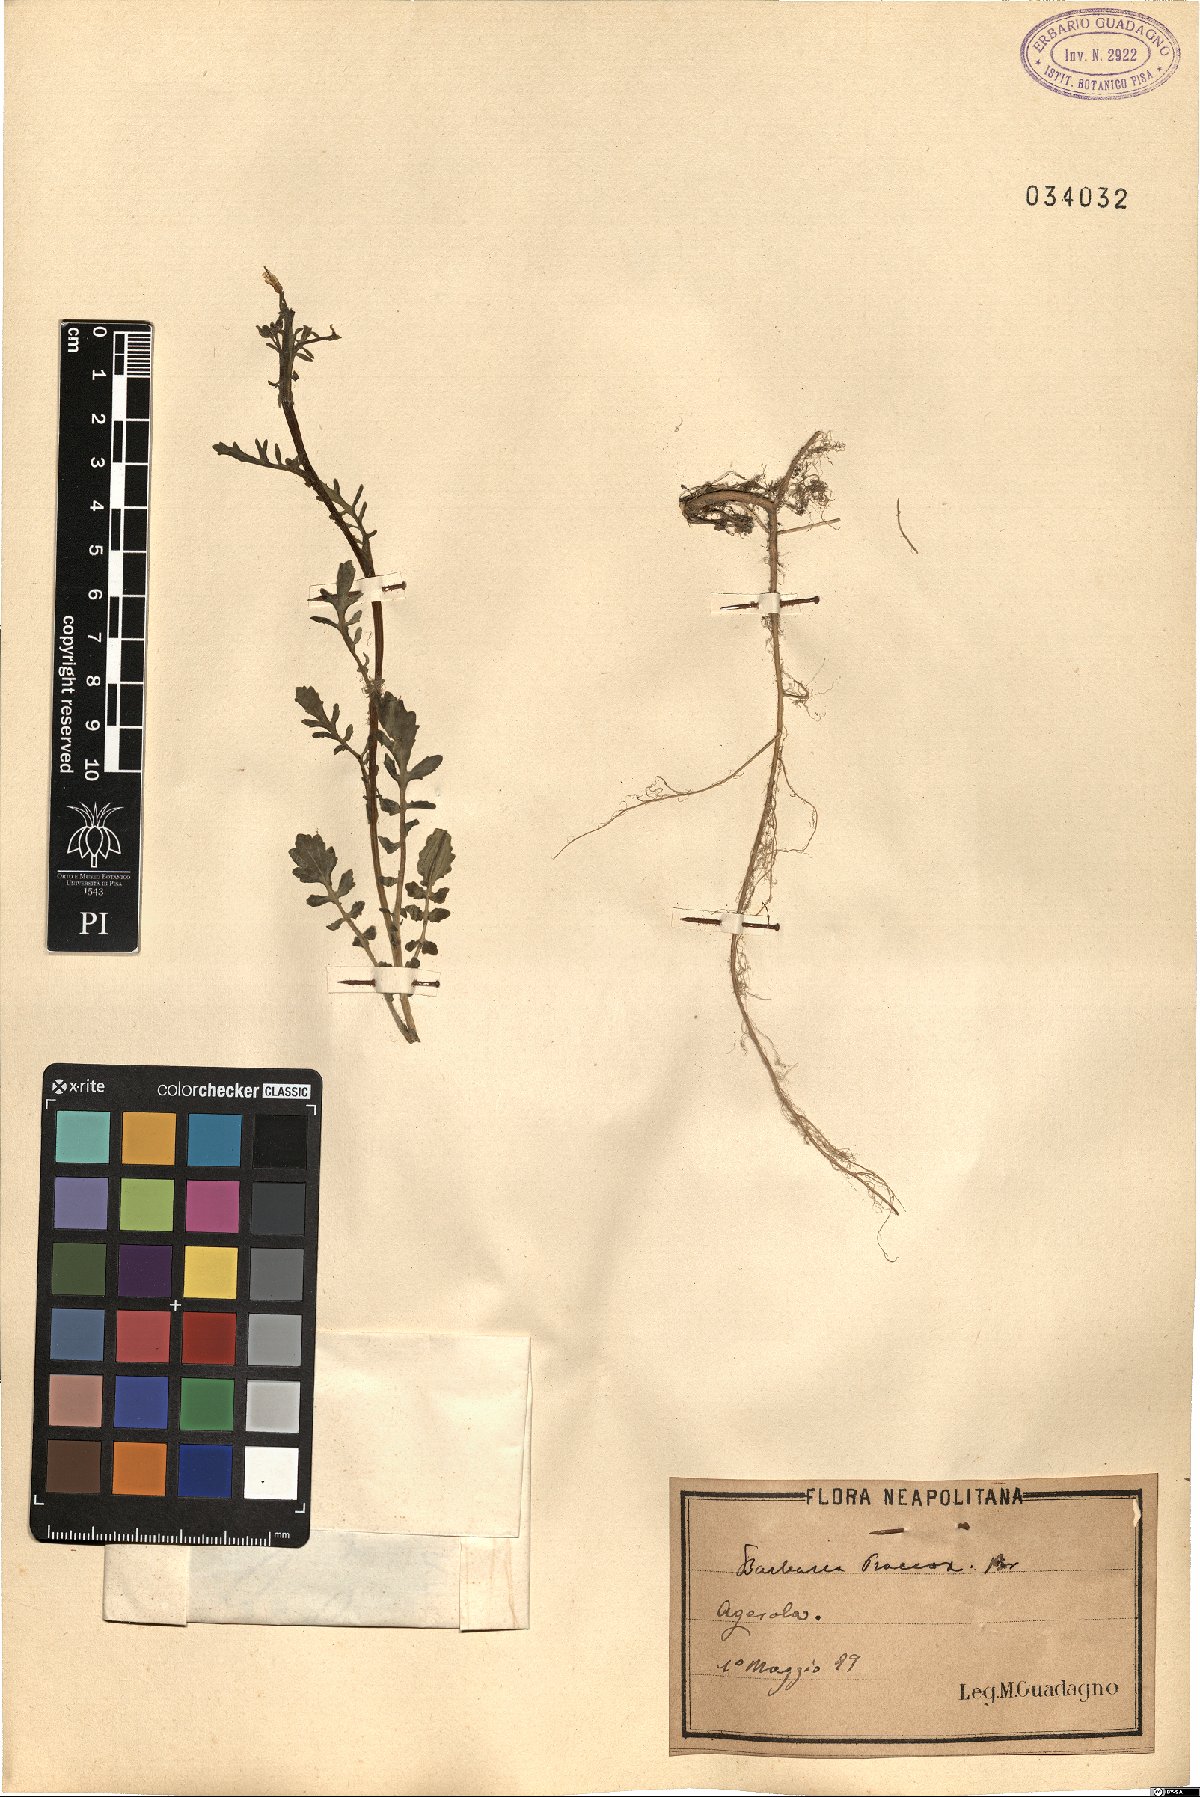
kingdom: Plantae
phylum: Tracheophyta
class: Magnoliopsida
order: Brassicales
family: Brassicaceae
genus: Barbarea
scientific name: Barbarea verna
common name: American cress
